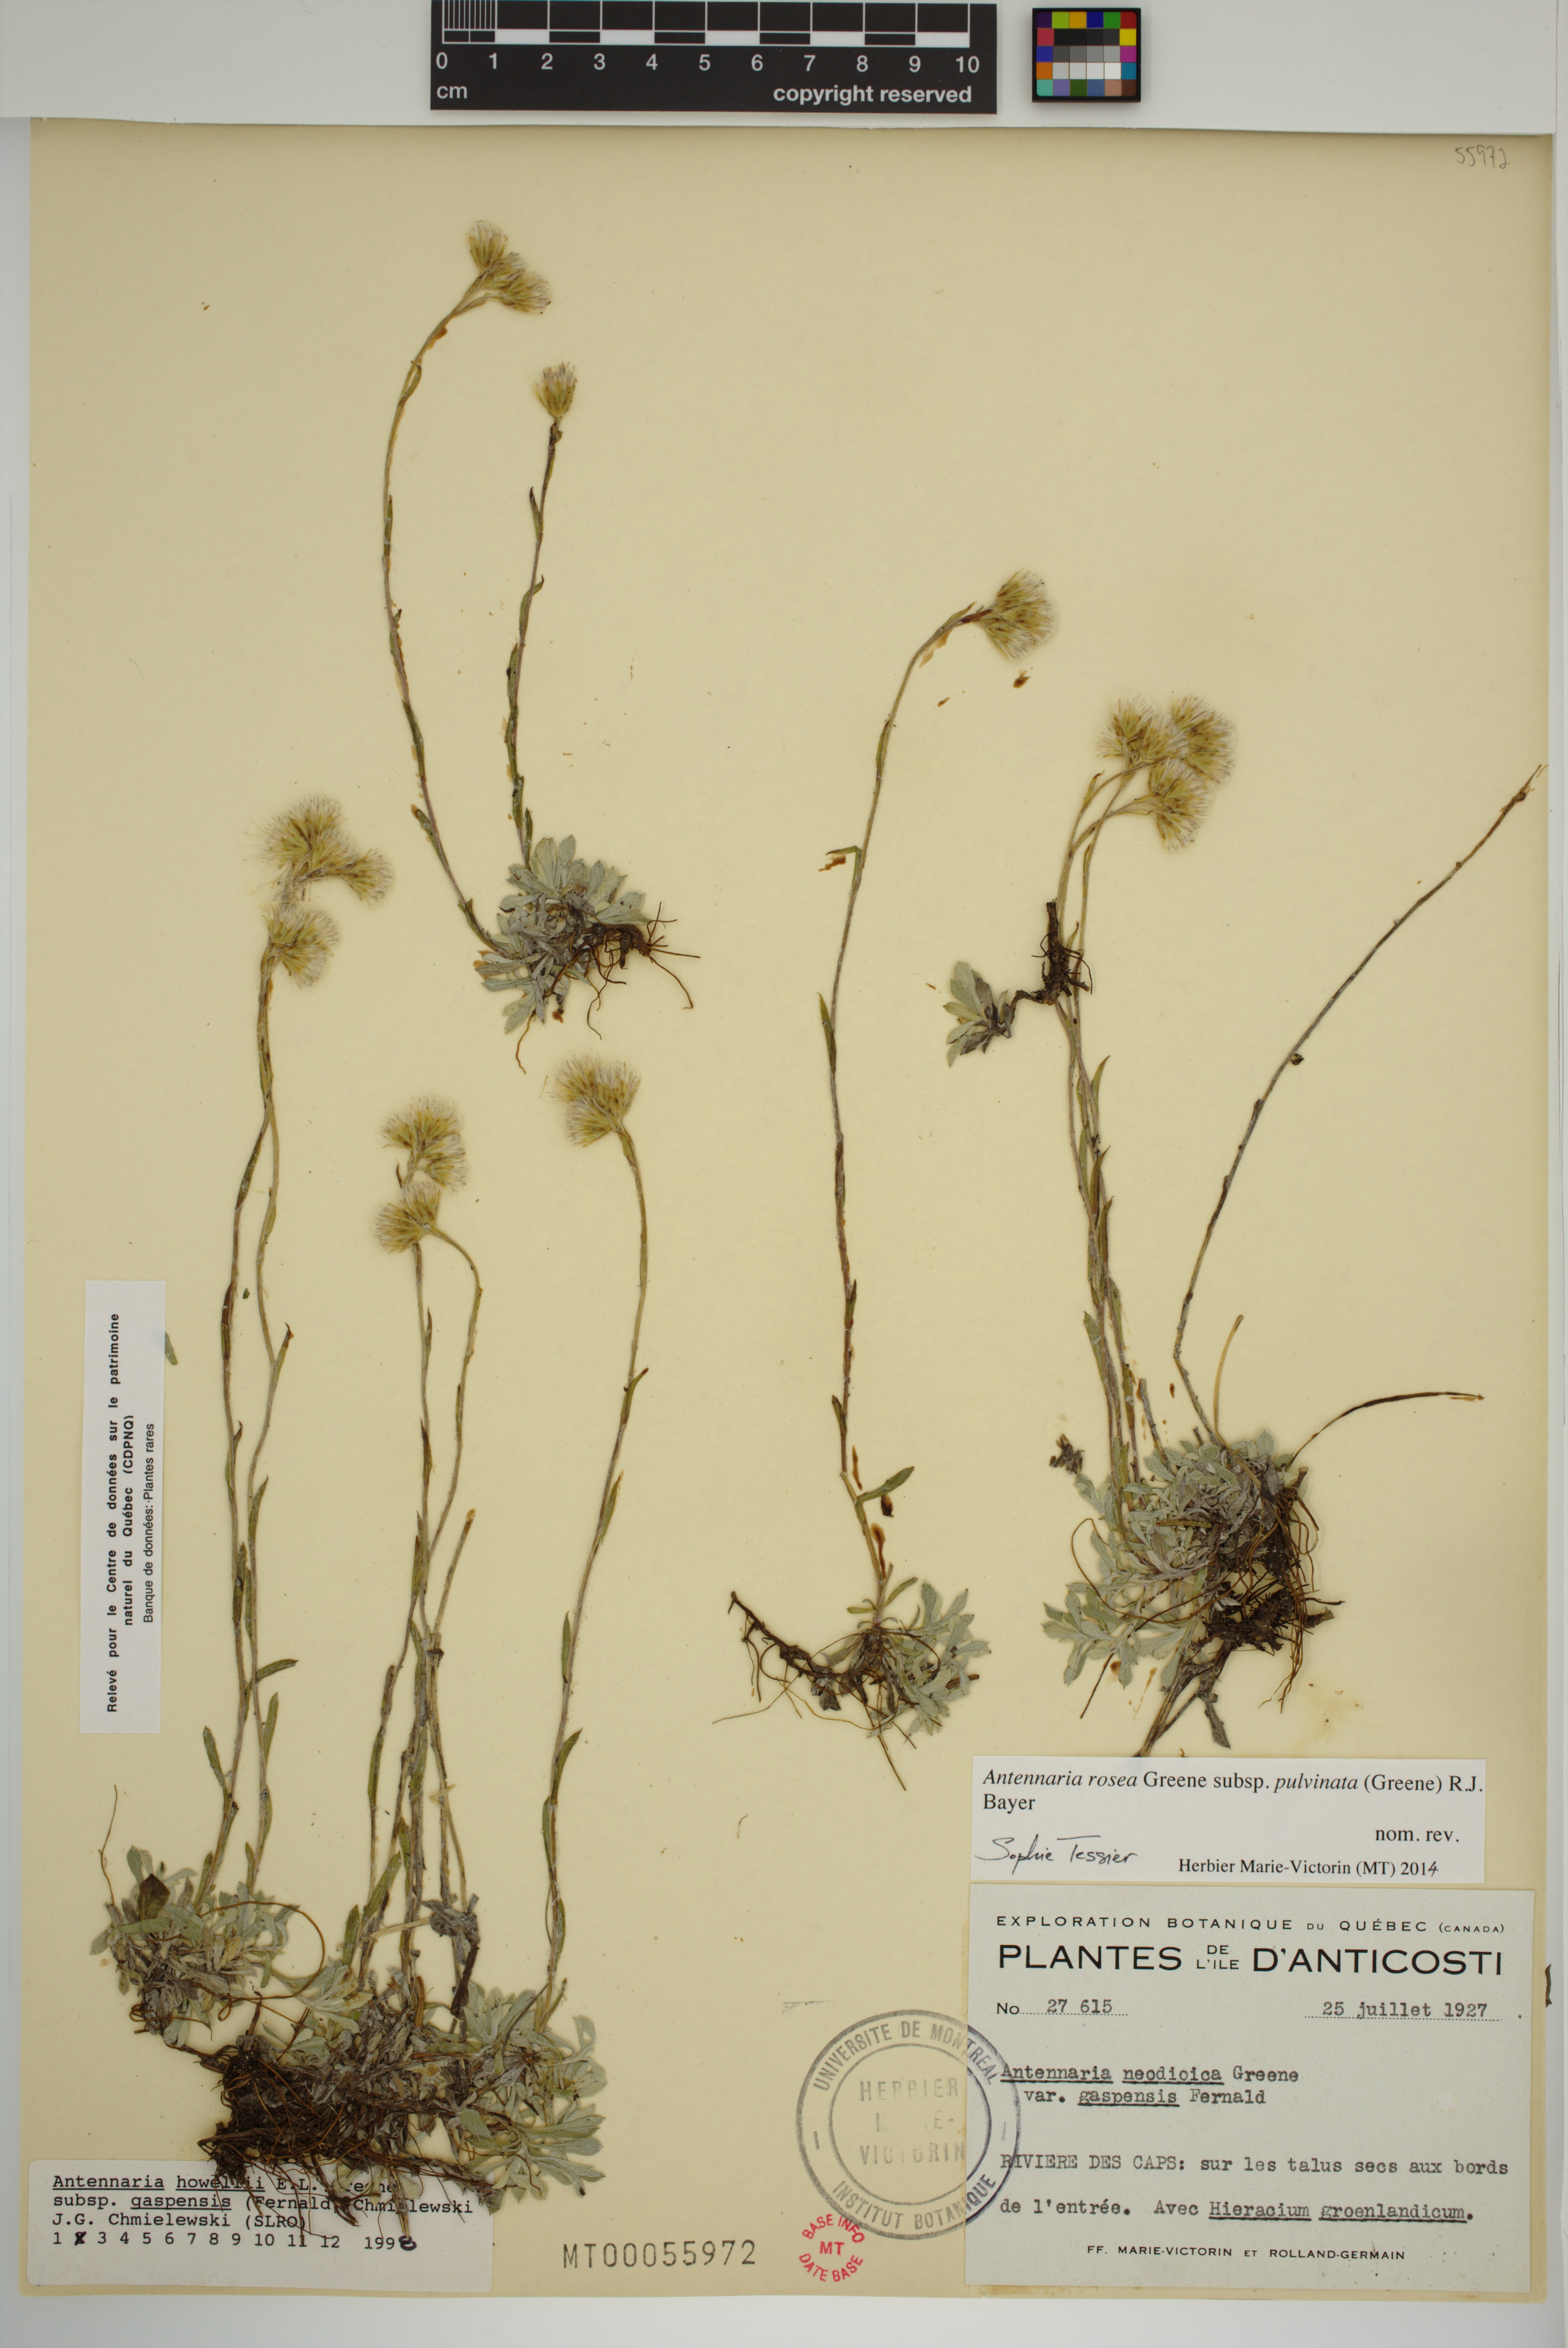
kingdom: Plantae
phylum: Tracheophyta
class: Magnoliopsida
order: Asterales
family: Asteraceae
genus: Antennaria
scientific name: Antennaria rosea
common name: Rosy pussytoes
